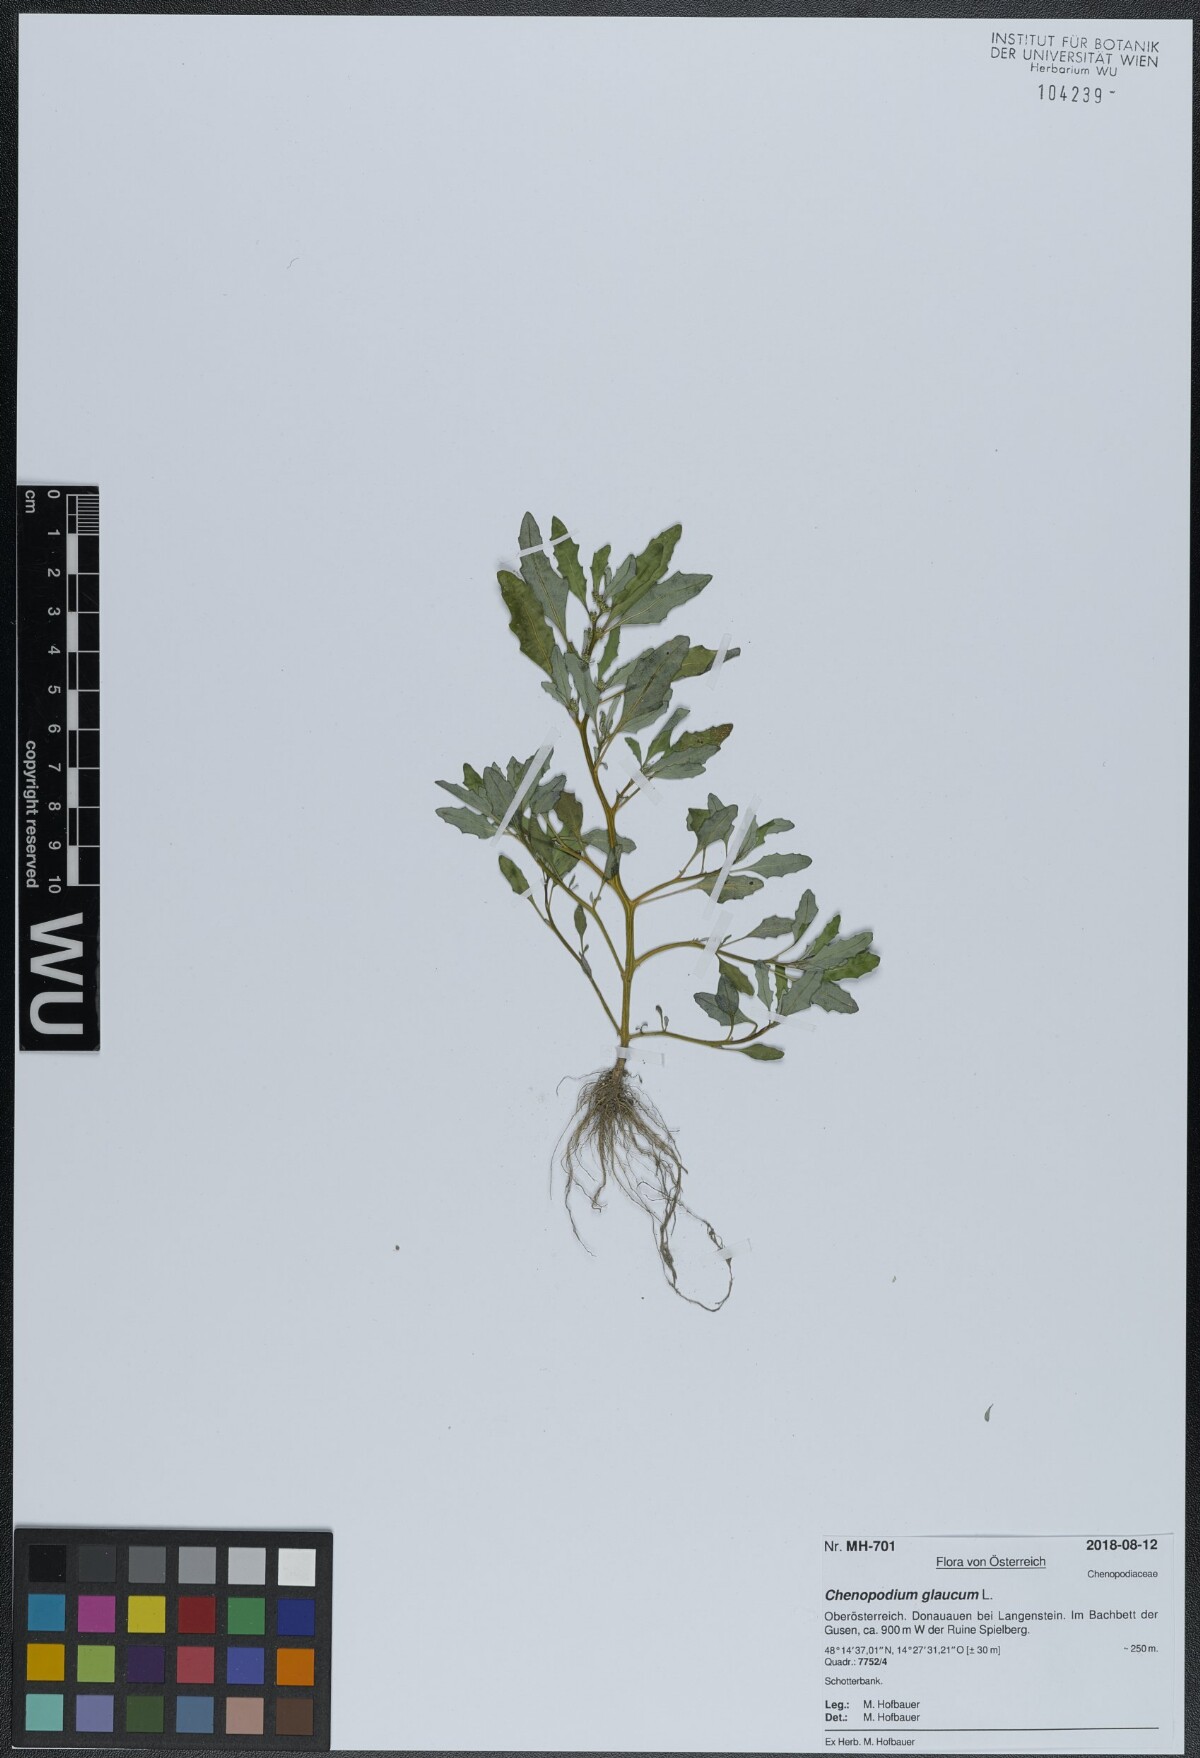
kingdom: Plantae
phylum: Tracheophyta
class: Magnoliopsida
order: Caryophyllales
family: Amaranthaceae
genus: Oxybasis
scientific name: Oxybasis glauca
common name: Glaucous goosefoot
